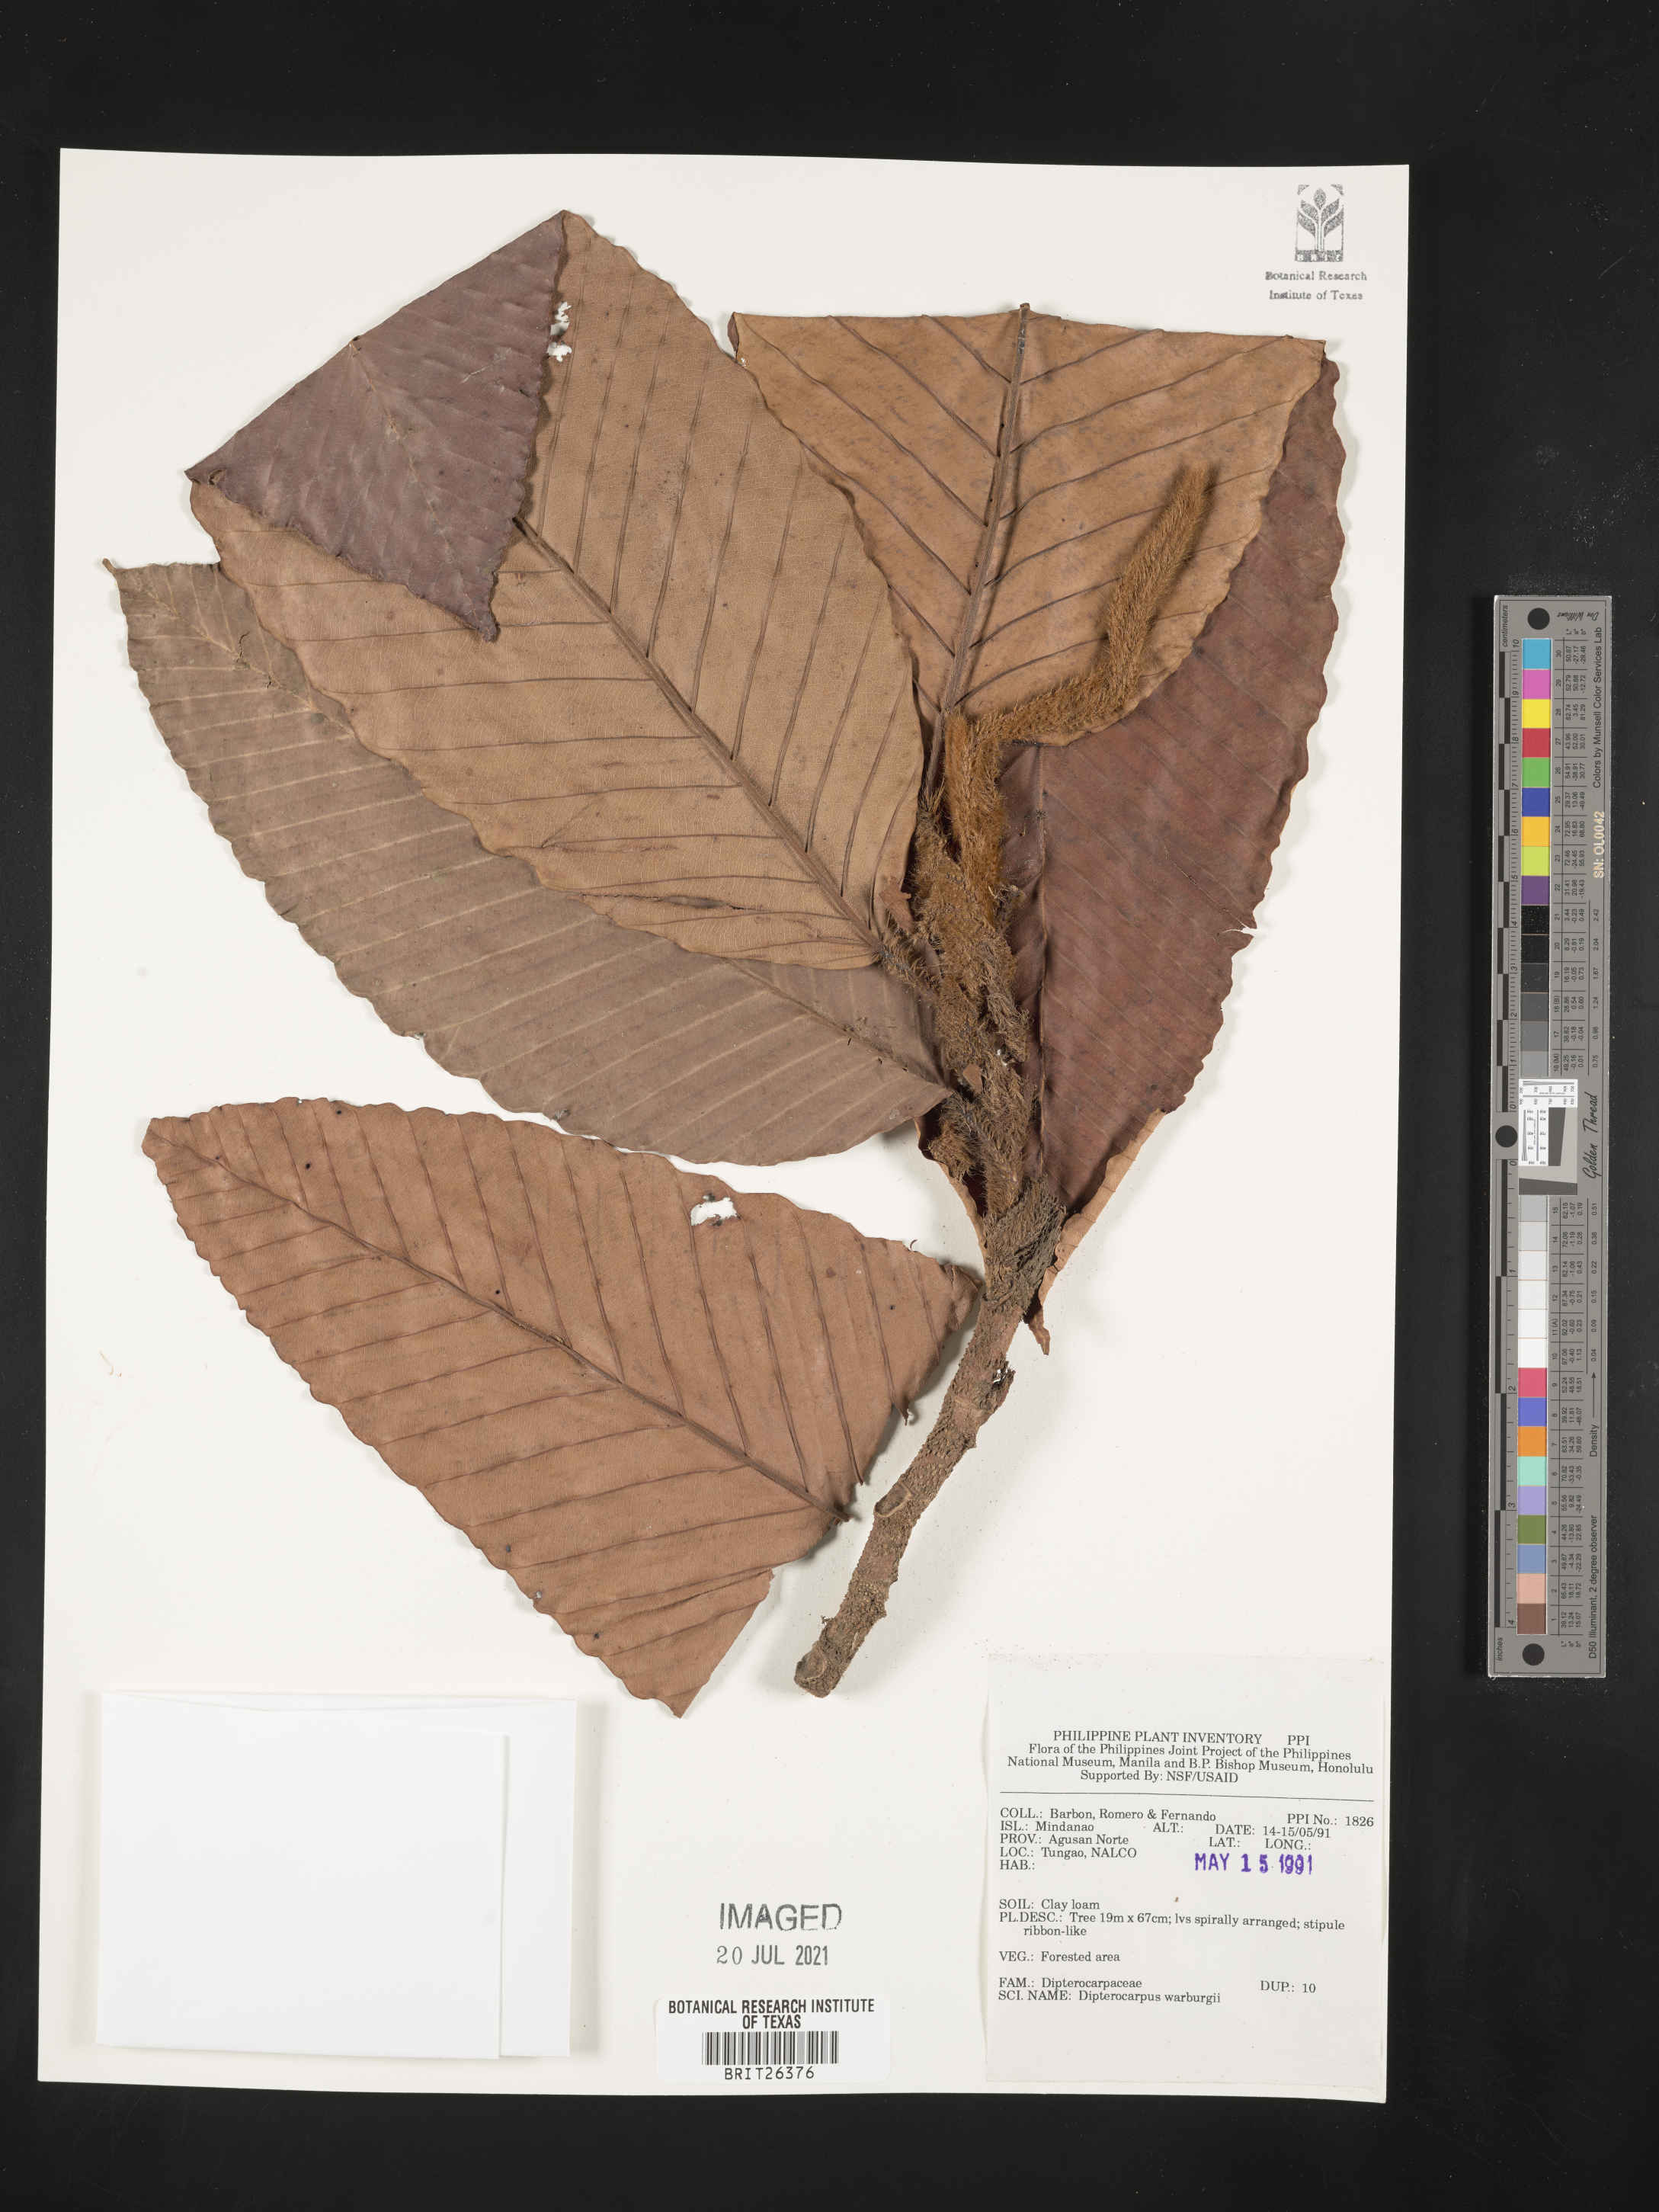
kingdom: Plantae
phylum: Tracheophyta
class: Magnoliopsida
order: Malvales
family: Dipterocarpaceae
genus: Dipterocarpus
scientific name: Dipterocarpus validus
